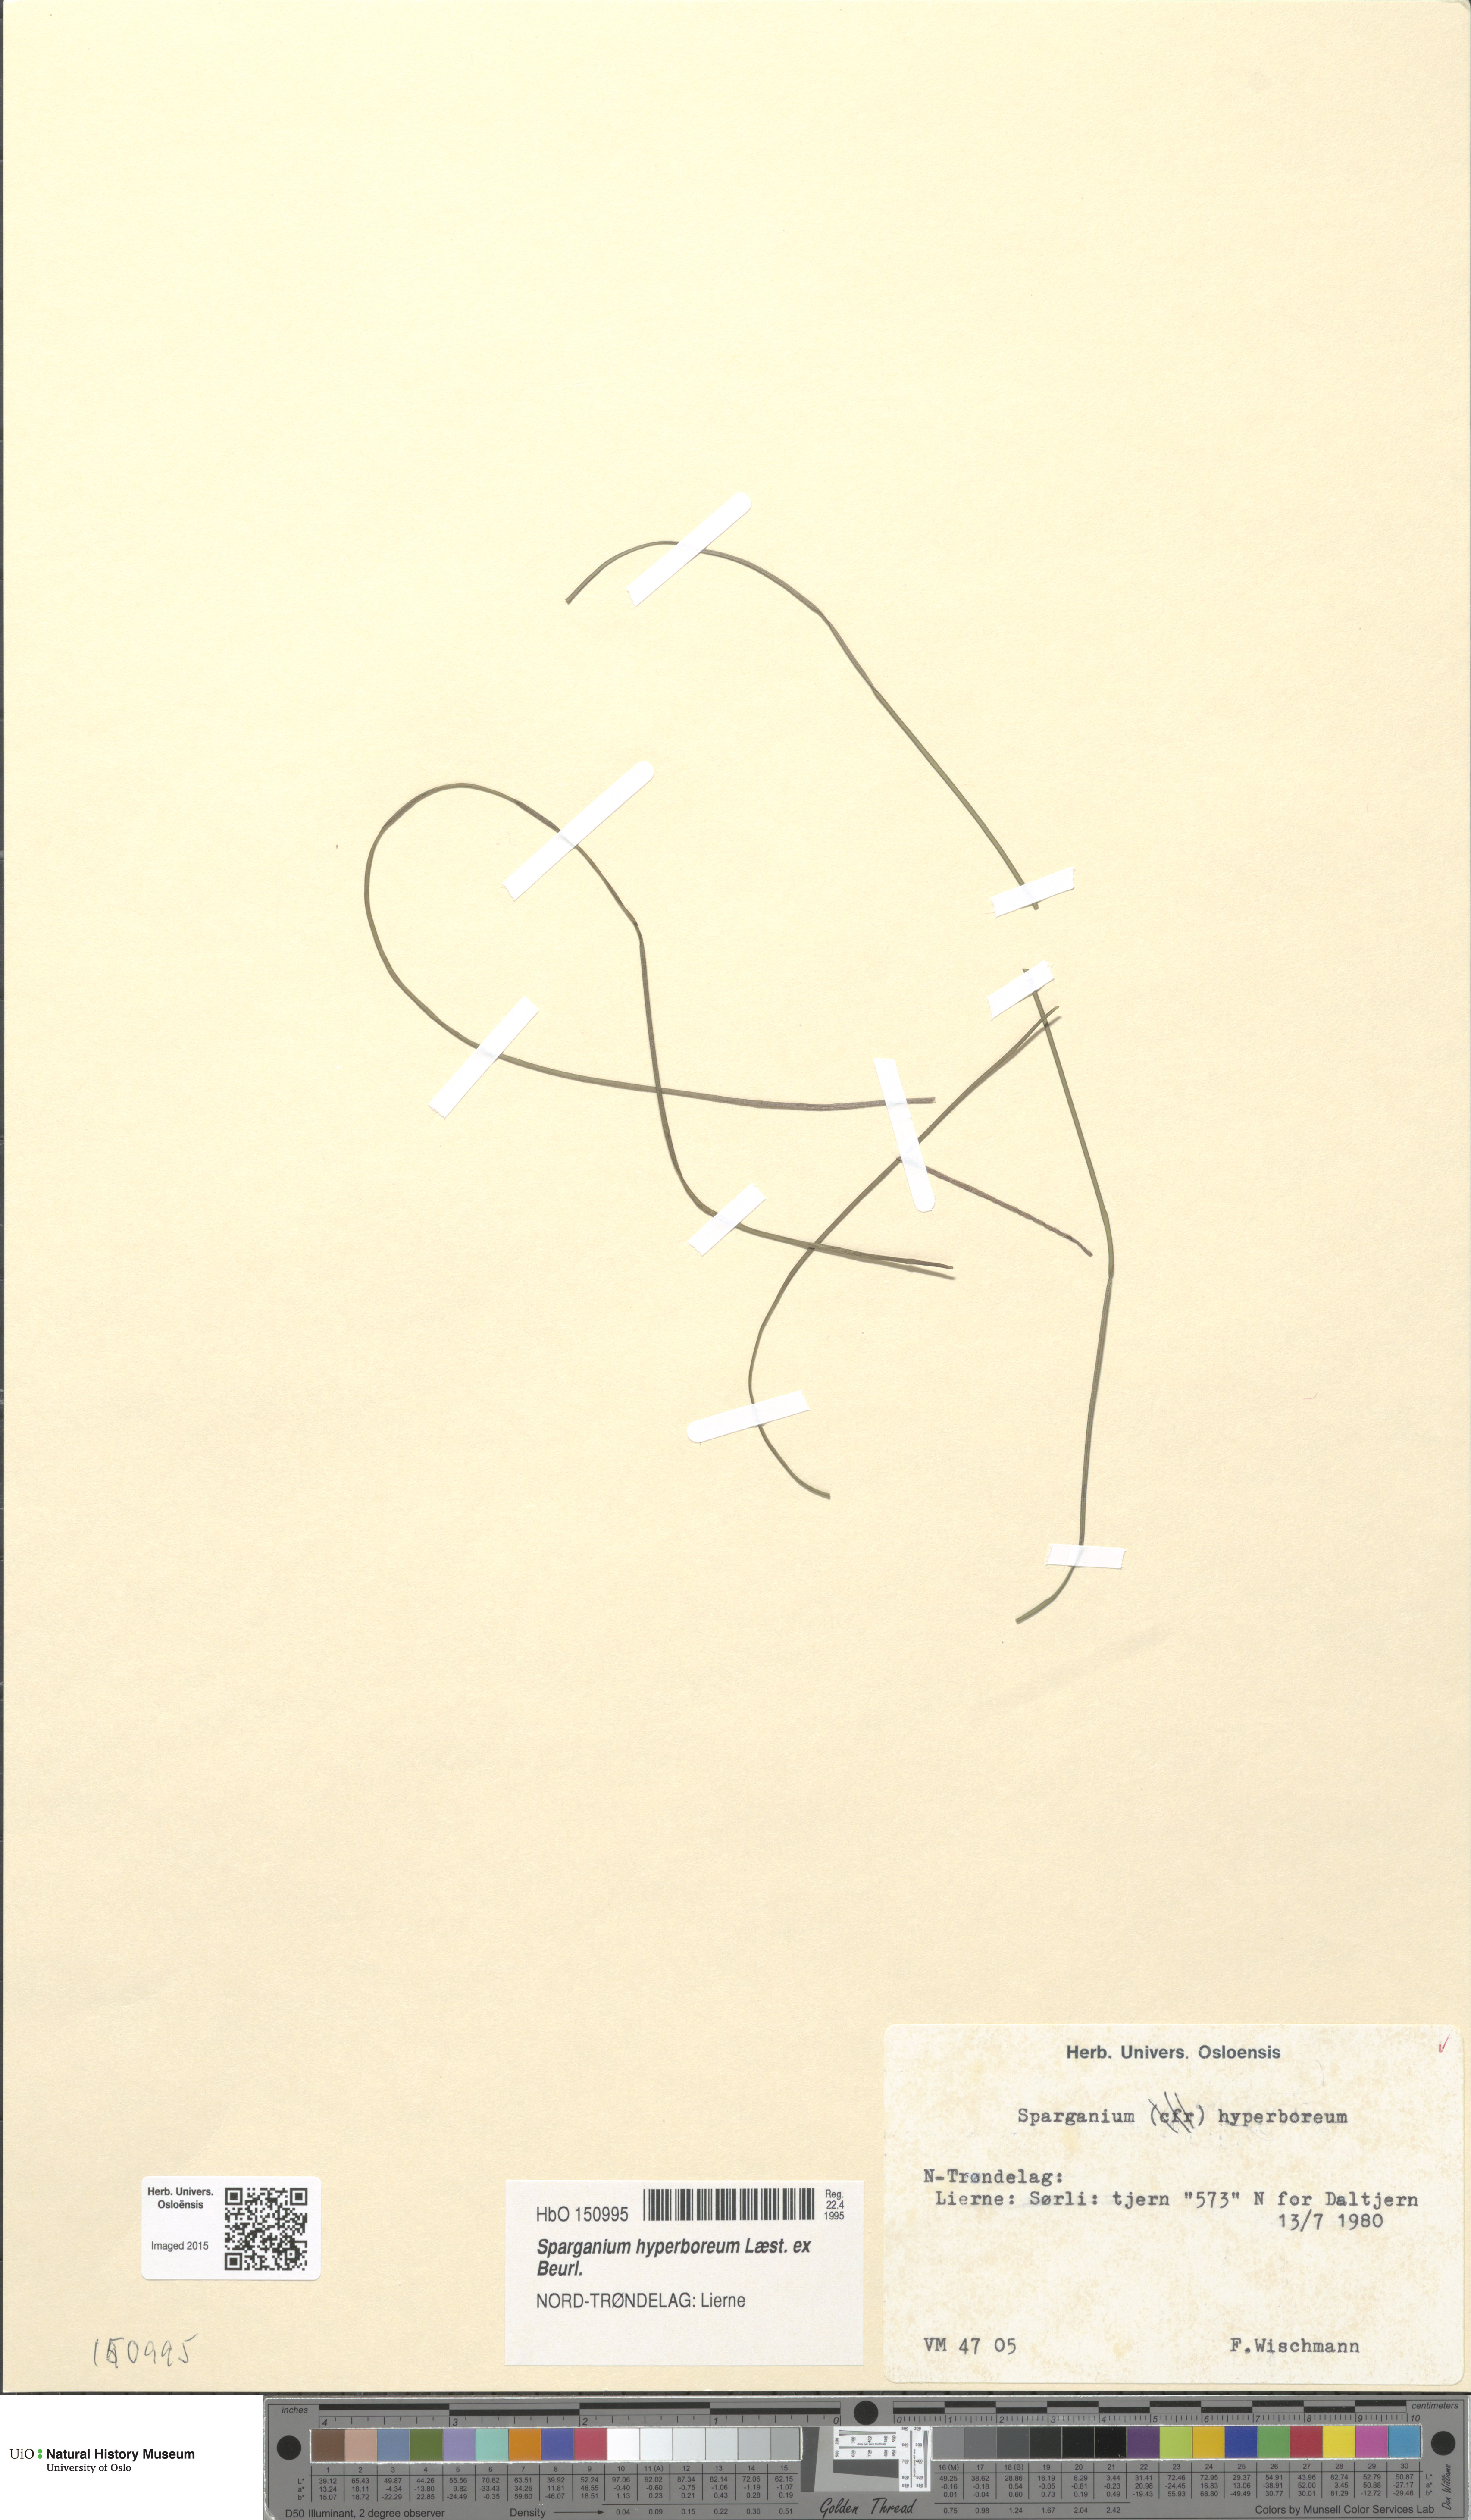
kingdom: Plantae
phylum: Tracheophyta
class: Liliopsida
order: Poales
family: Typhaceae
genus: Sparganium
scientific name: Sparganium hyperboreum
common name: Arctic burreed
